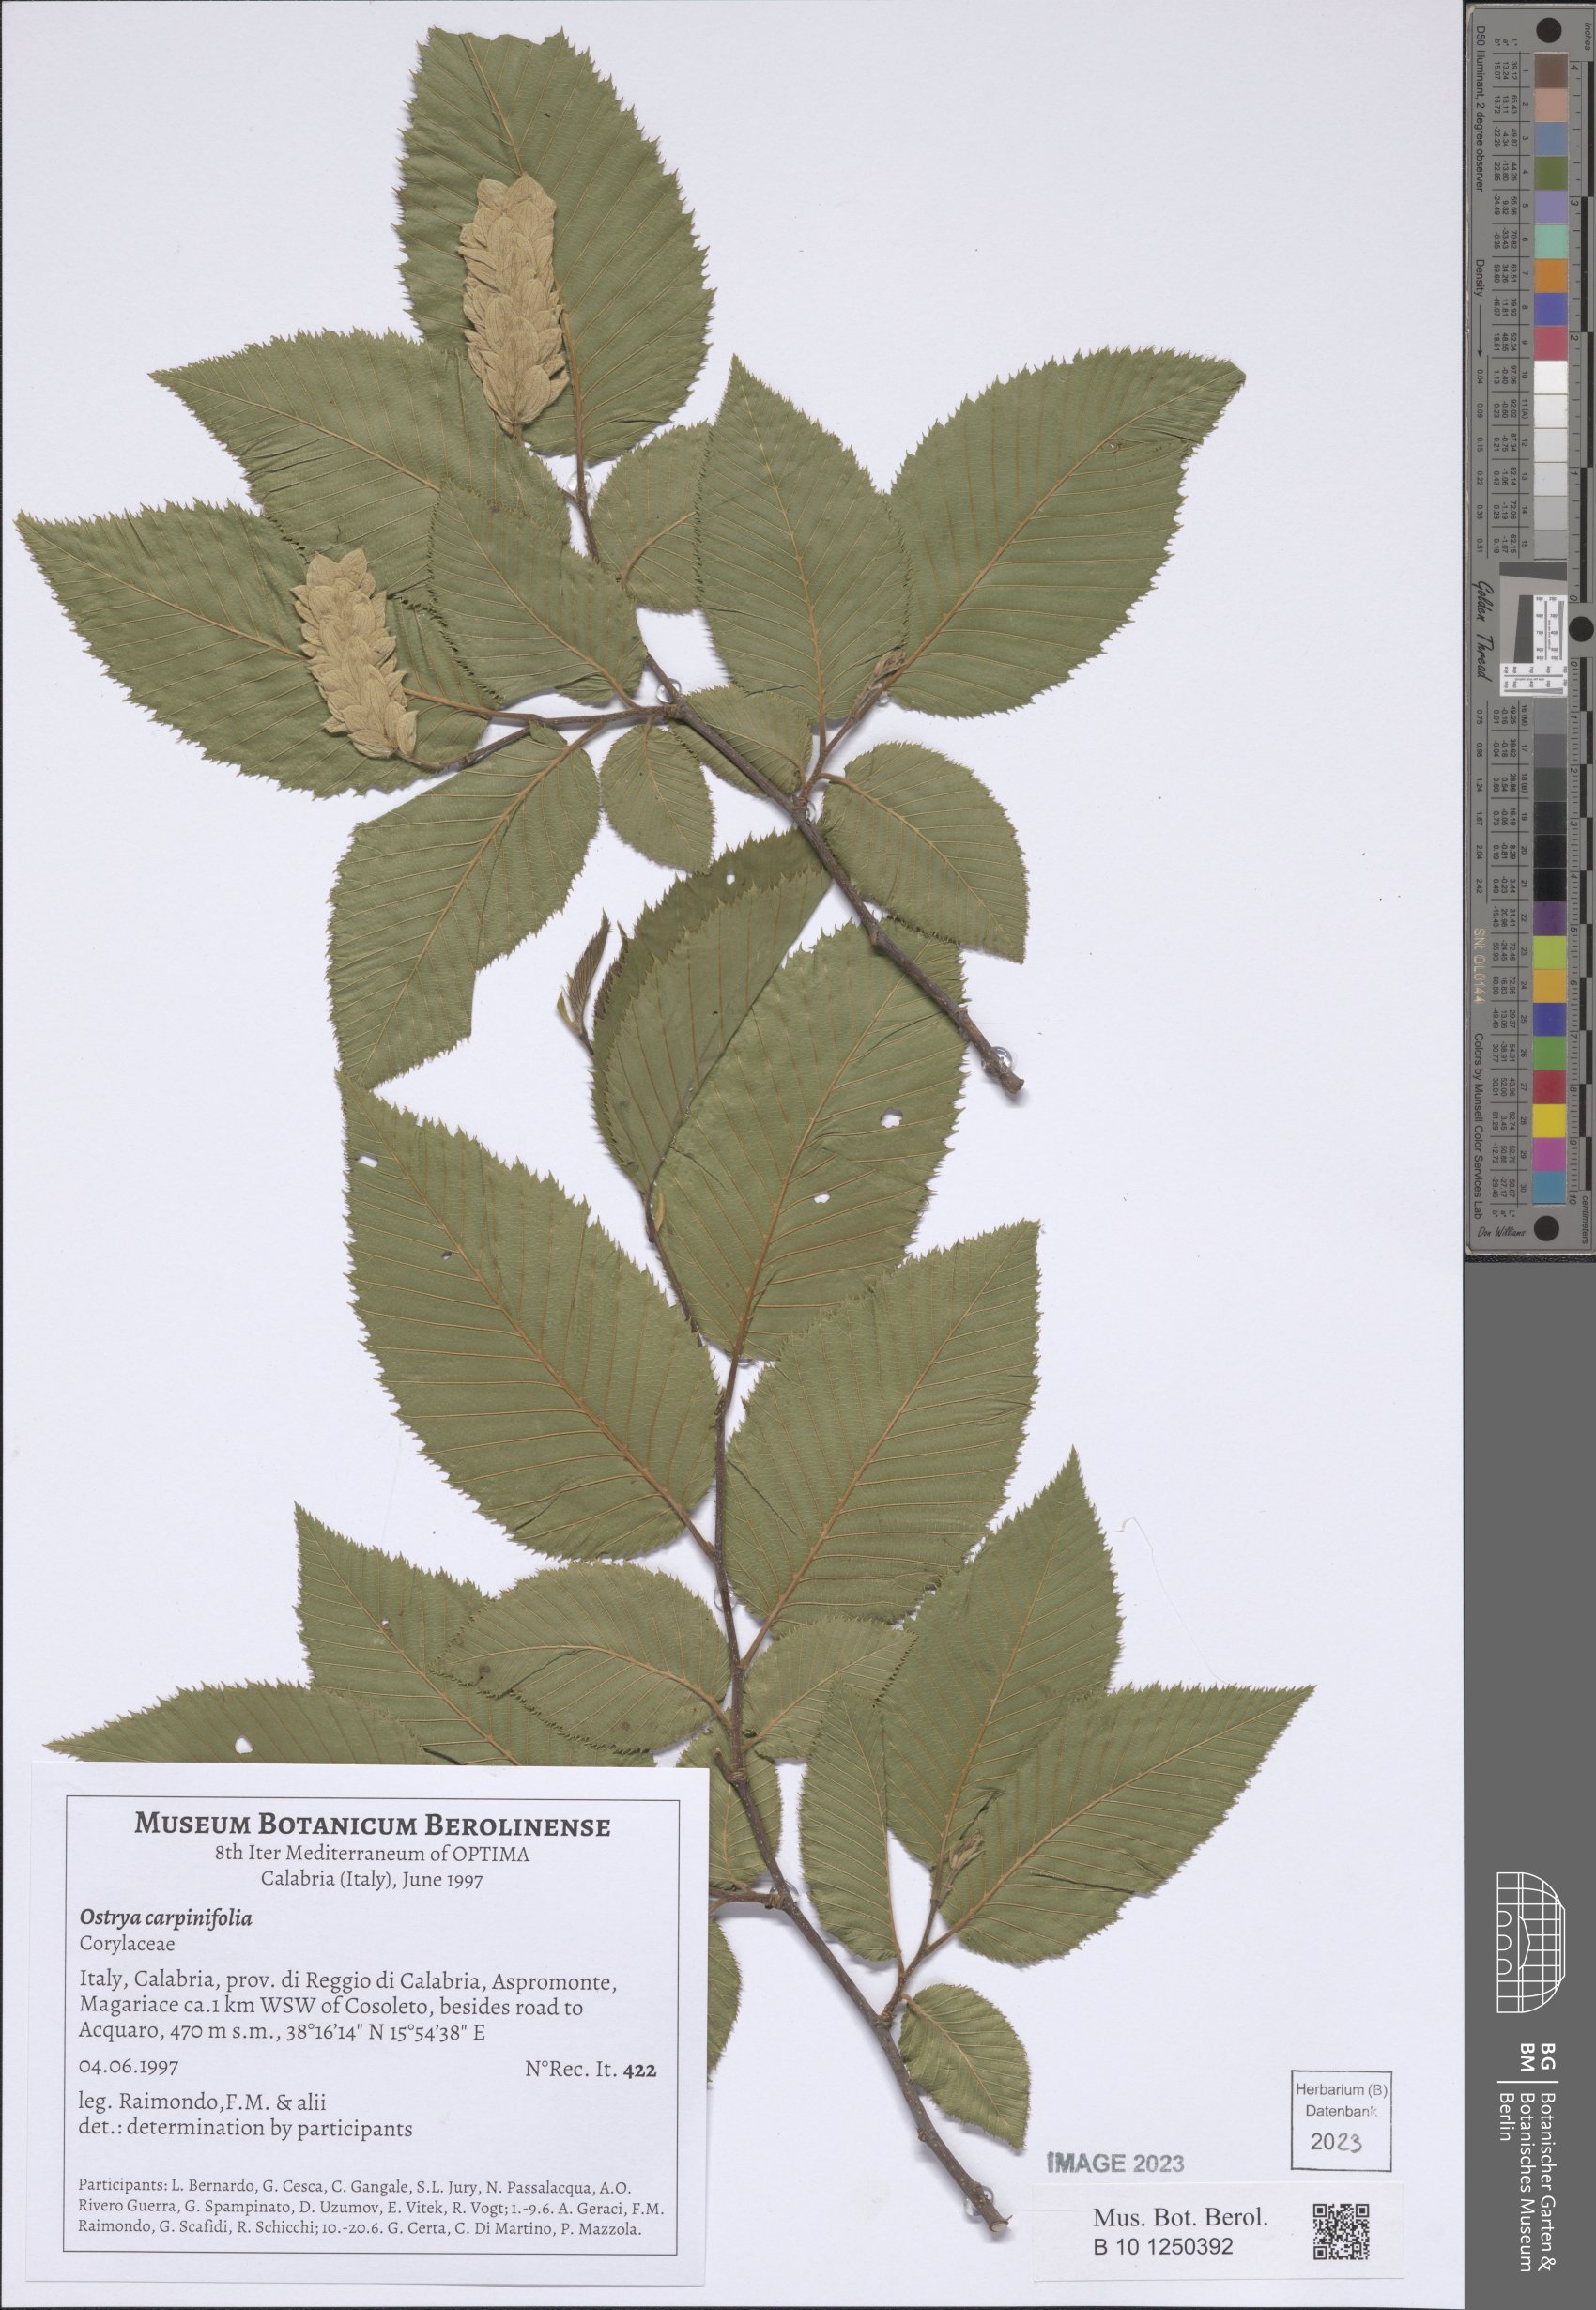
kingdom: Plantae
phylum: Tracheophyta
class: Magnoliopsida
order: Fagales
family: Betulaceae
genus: Ostrya
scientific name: Ostrya carpinifolia
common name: European hop-hornbeam
